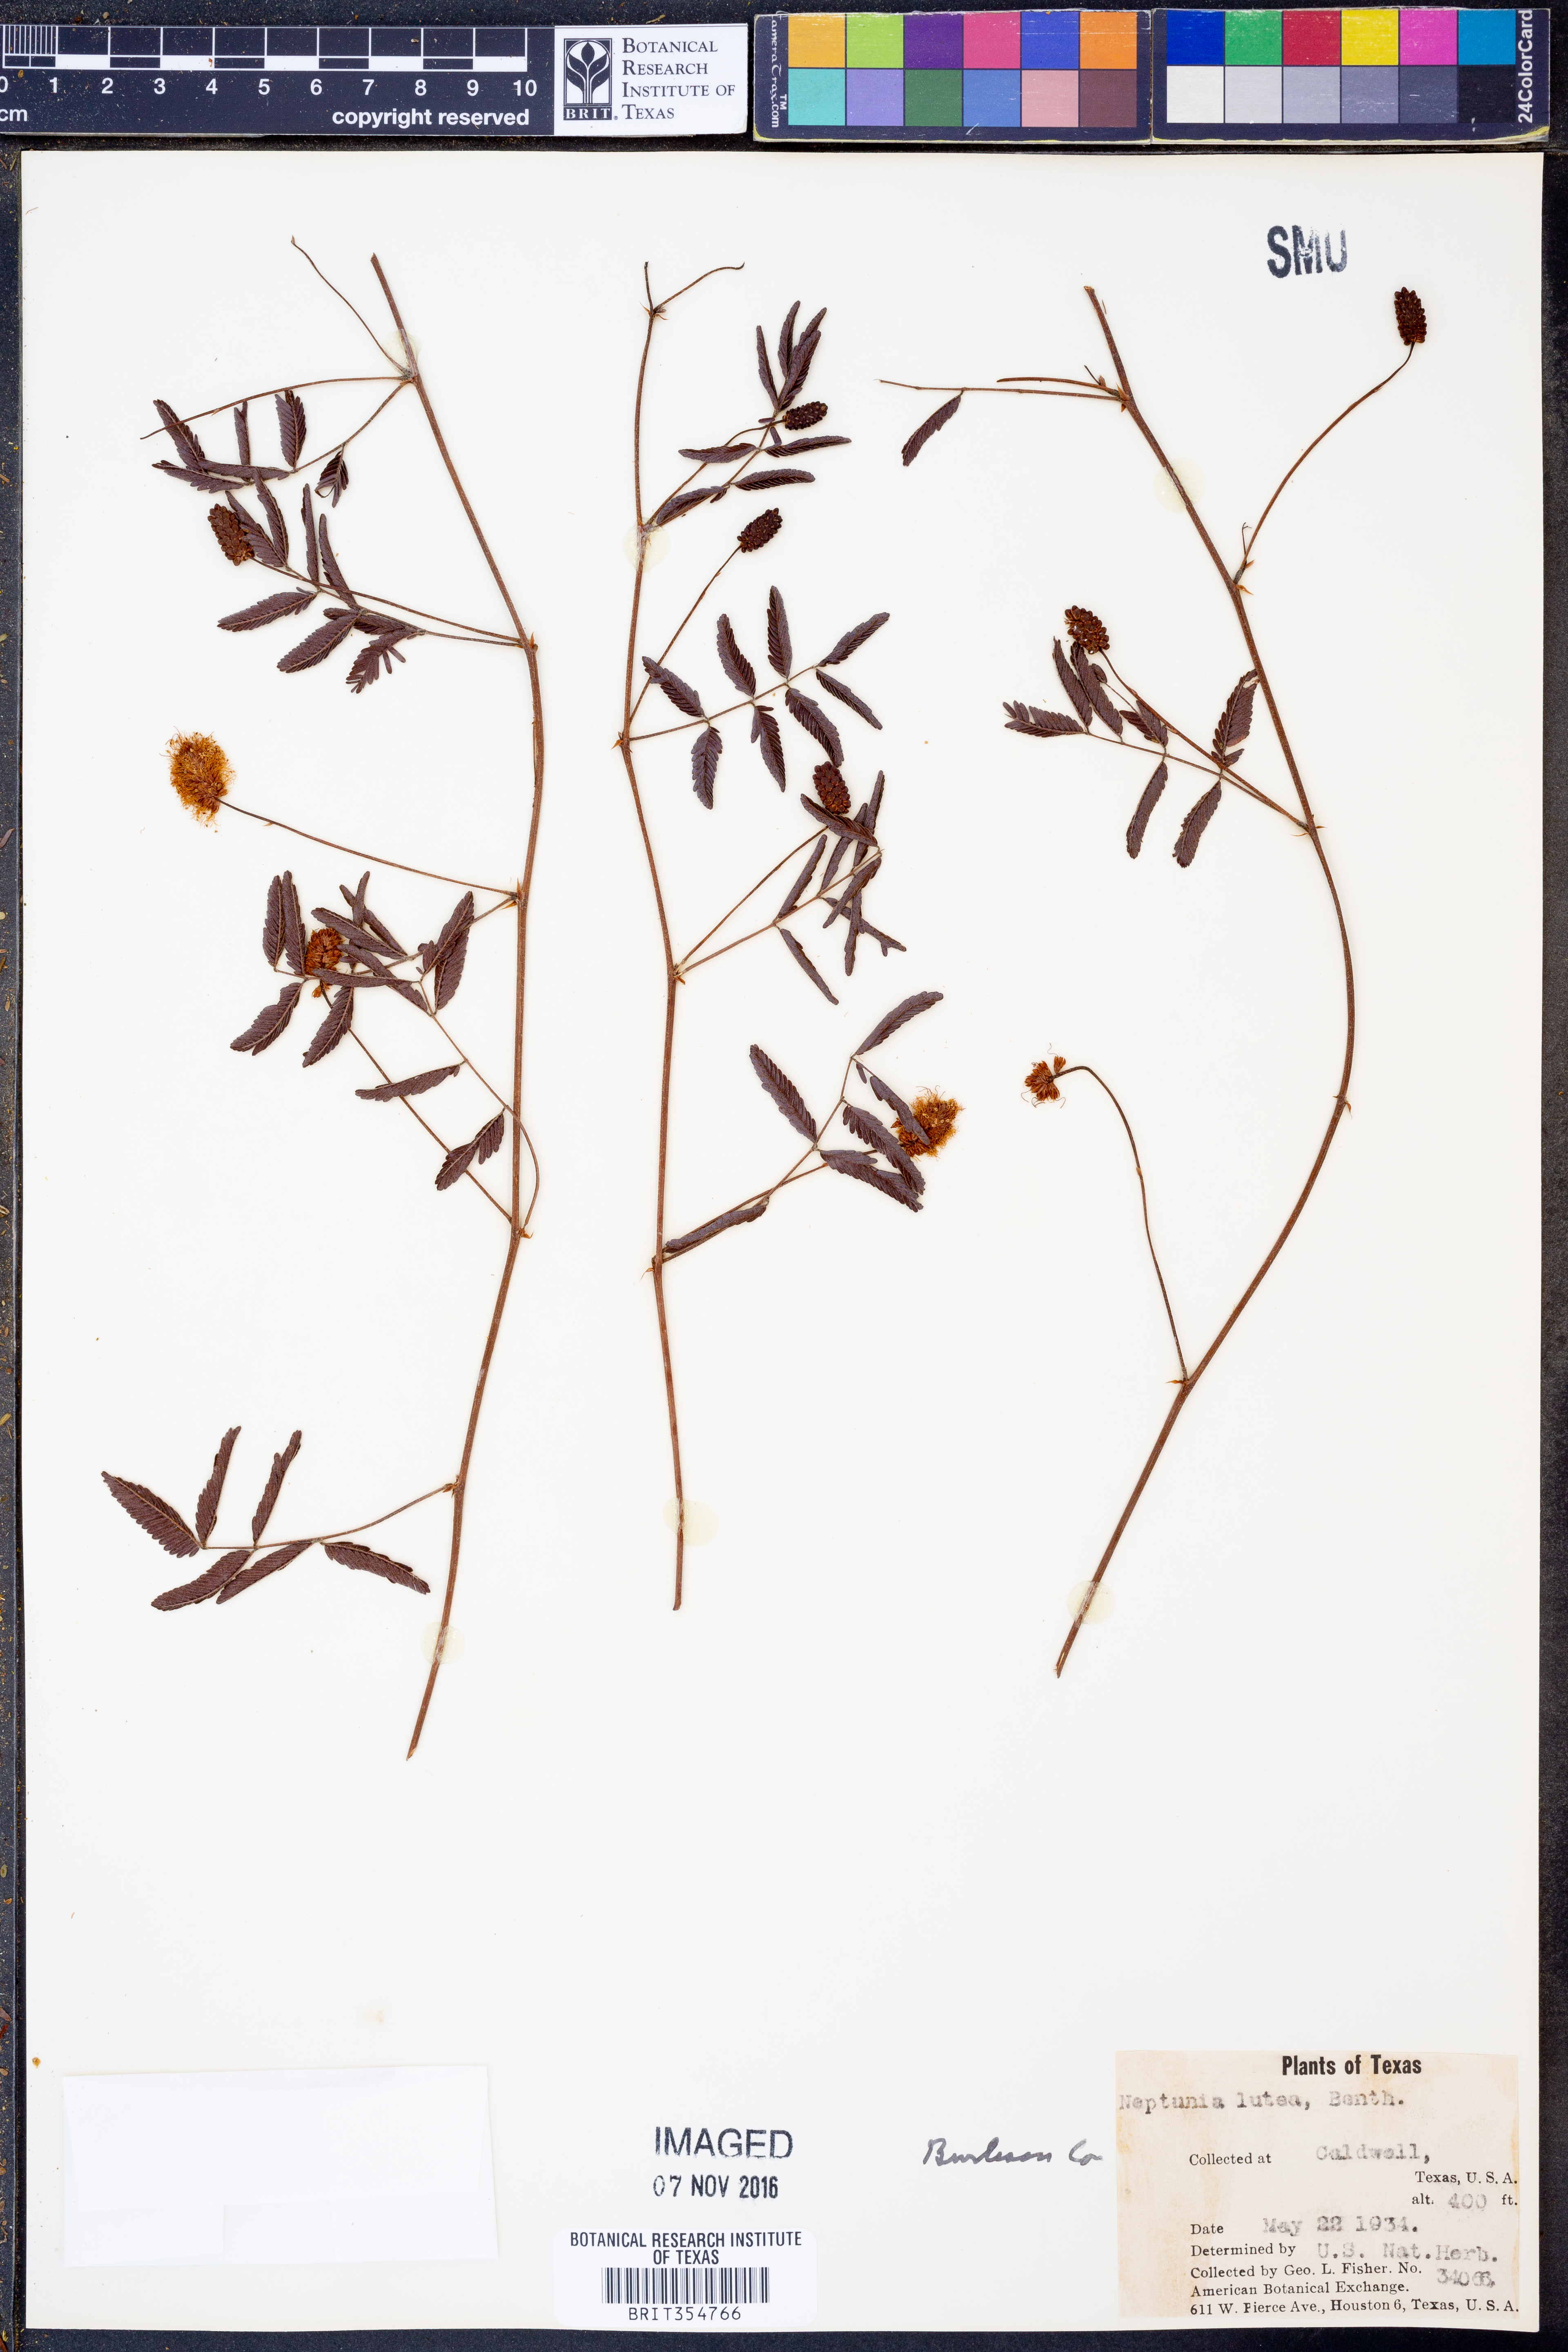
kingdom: Plantae
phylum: Tracheophyta
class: Magnoliopsida
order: Fabales
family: Fabaceae
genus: Neptunia
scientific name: Neptunia lutea
